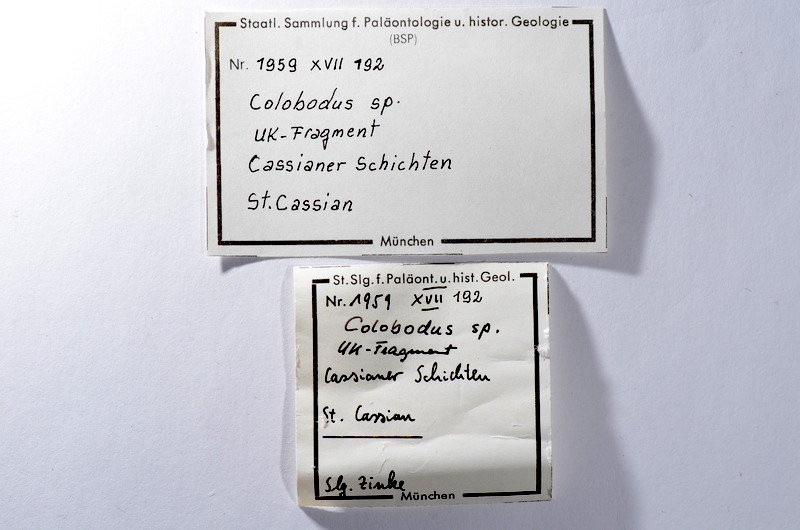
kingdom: Animalia
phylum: Chordata
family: Colobodontidae
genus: Colobodus
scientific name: Colobodus
